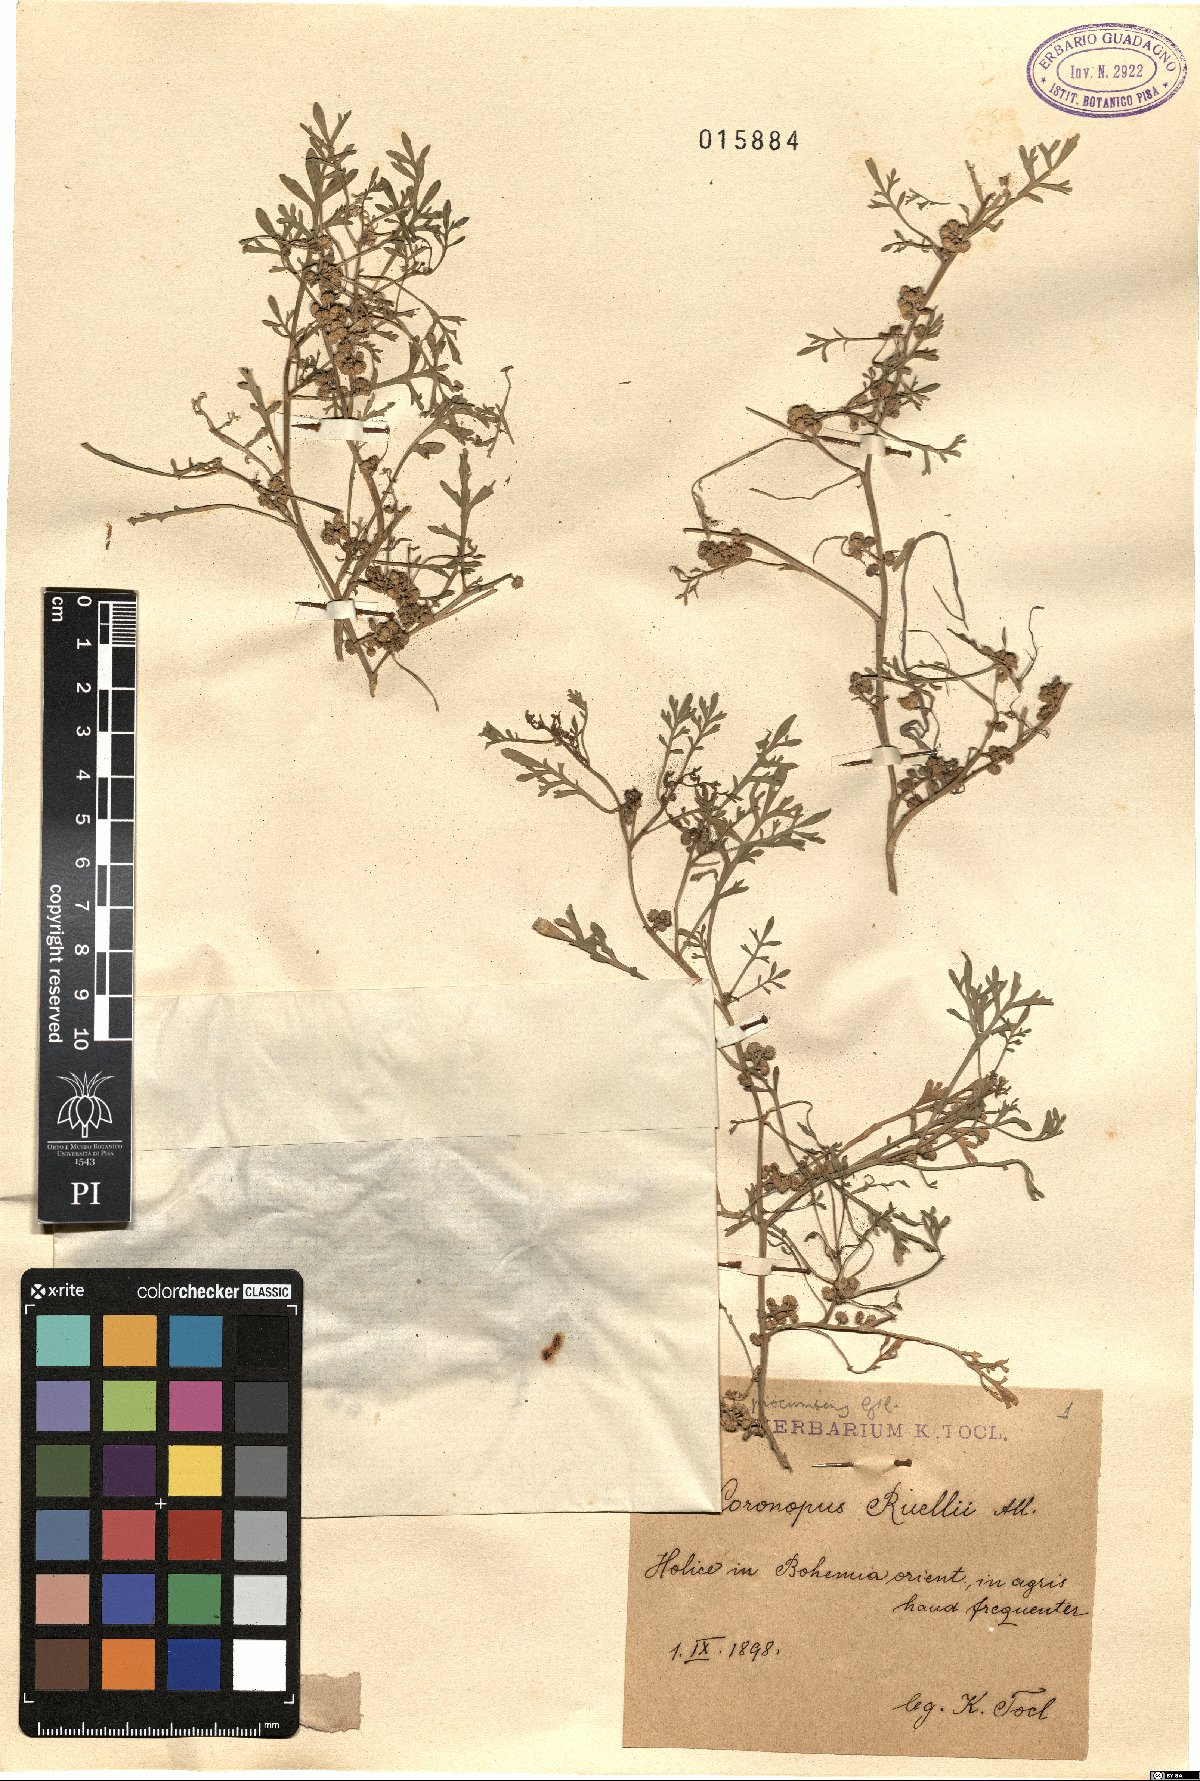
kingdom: Plantae
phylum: Tracheophyta
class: Magnoliopsida
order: Brassicales
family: Brassicaceae
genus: Lepidium
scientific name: Lepidium coronopus
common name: Greater swinecress
